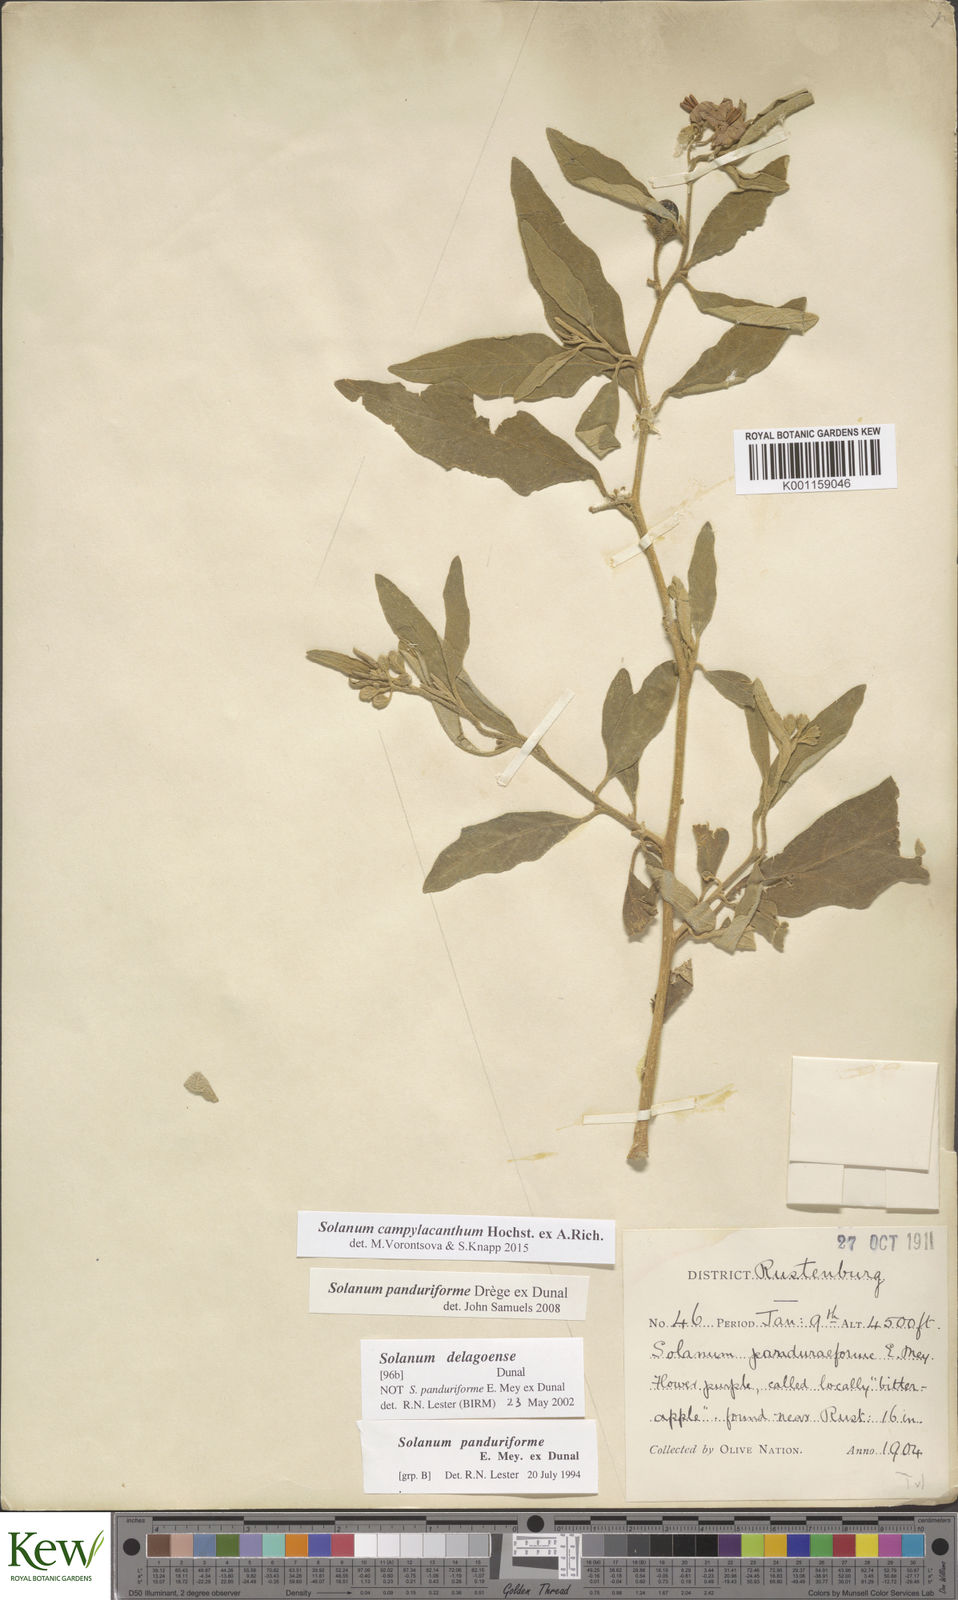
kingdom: Plantae
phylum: Tracheophyta
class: Magnoliopsida
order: Solanales
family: Solanaceae
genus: Solanum
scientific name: Solanum campylacanthum
